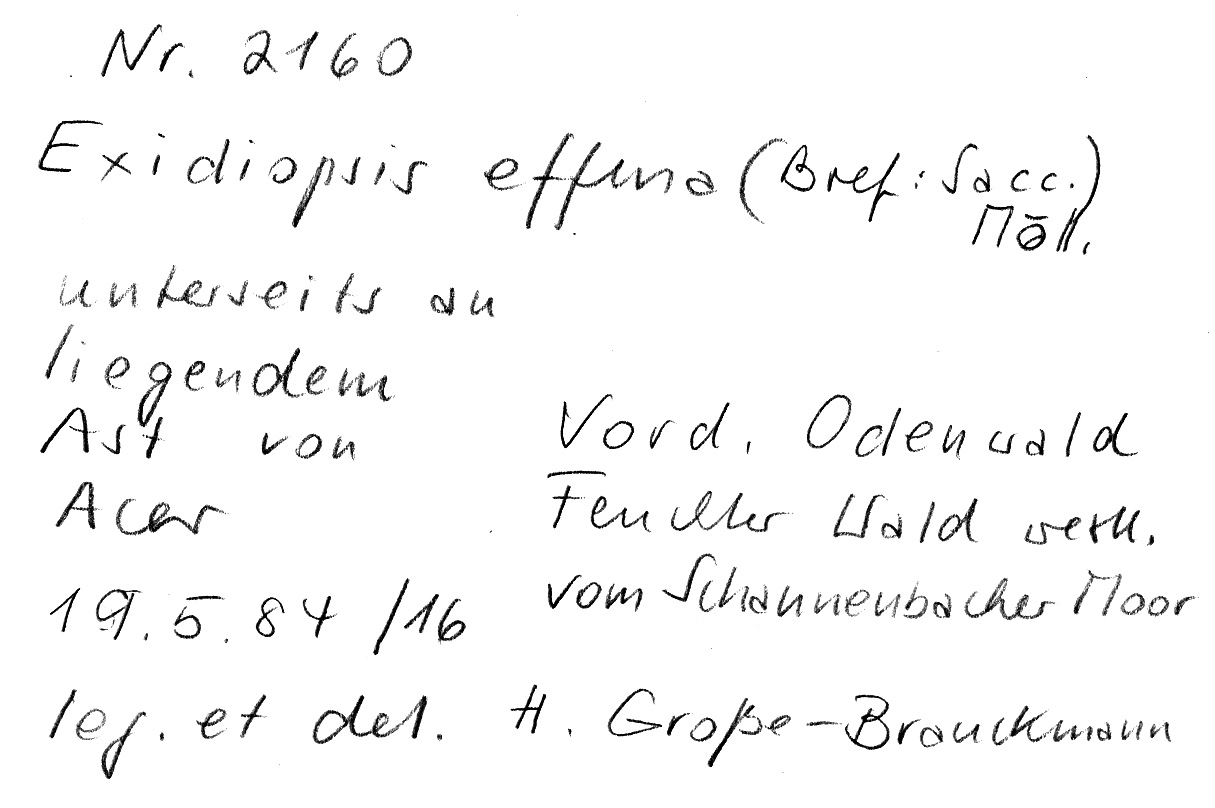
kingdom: Fungi
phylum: Basidiomycota
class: Agaricomycetes
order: Auriculariales
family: Auriculariaceae
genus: Exidiopsis
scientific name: Exidiopsis effusa
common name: Hair ice crust
